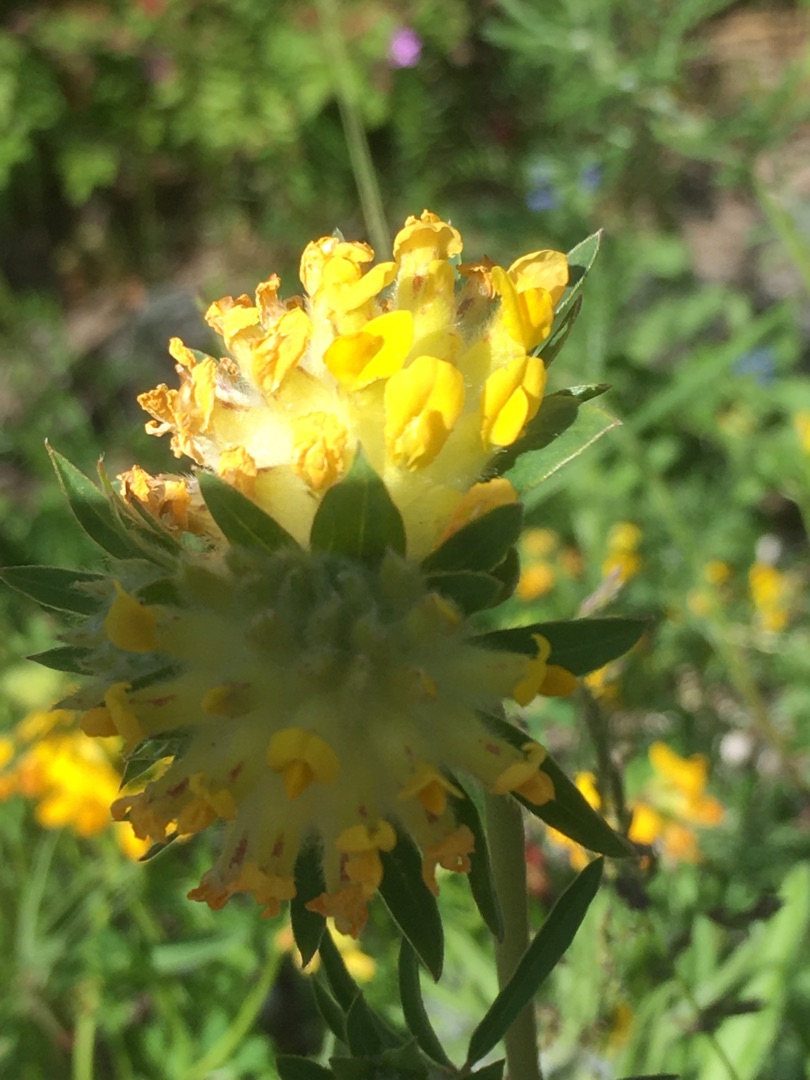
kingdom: Plantae
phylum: Tracheophyta
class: Magnoliopsida
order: Fabales
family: Fabaceae
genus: Anthyllis
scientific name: Anthyllis vulneraria
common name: Rundbælg
